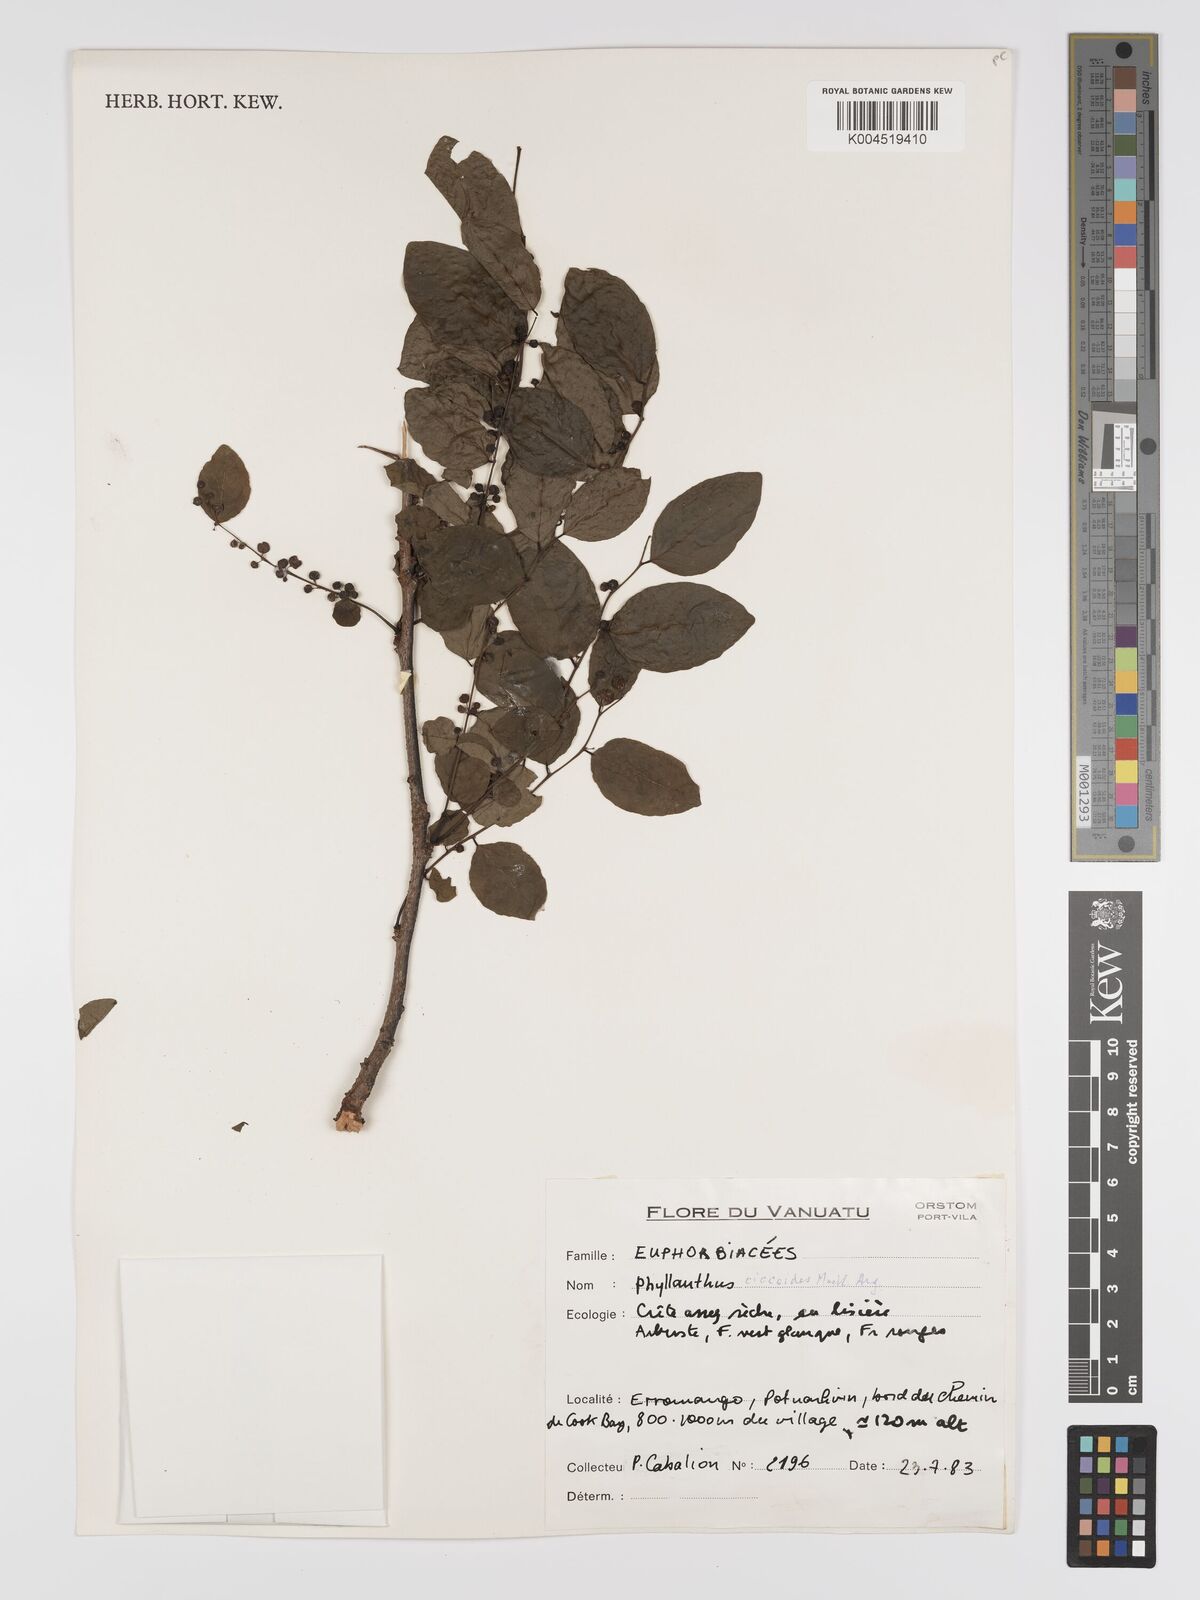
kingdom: Plantae
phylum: Tracheophyta
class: Magnoliopsida
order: Malpighiales
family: Phyllanthaceae
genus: Phyllanthus
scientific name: Phyllanthus ciccoides
